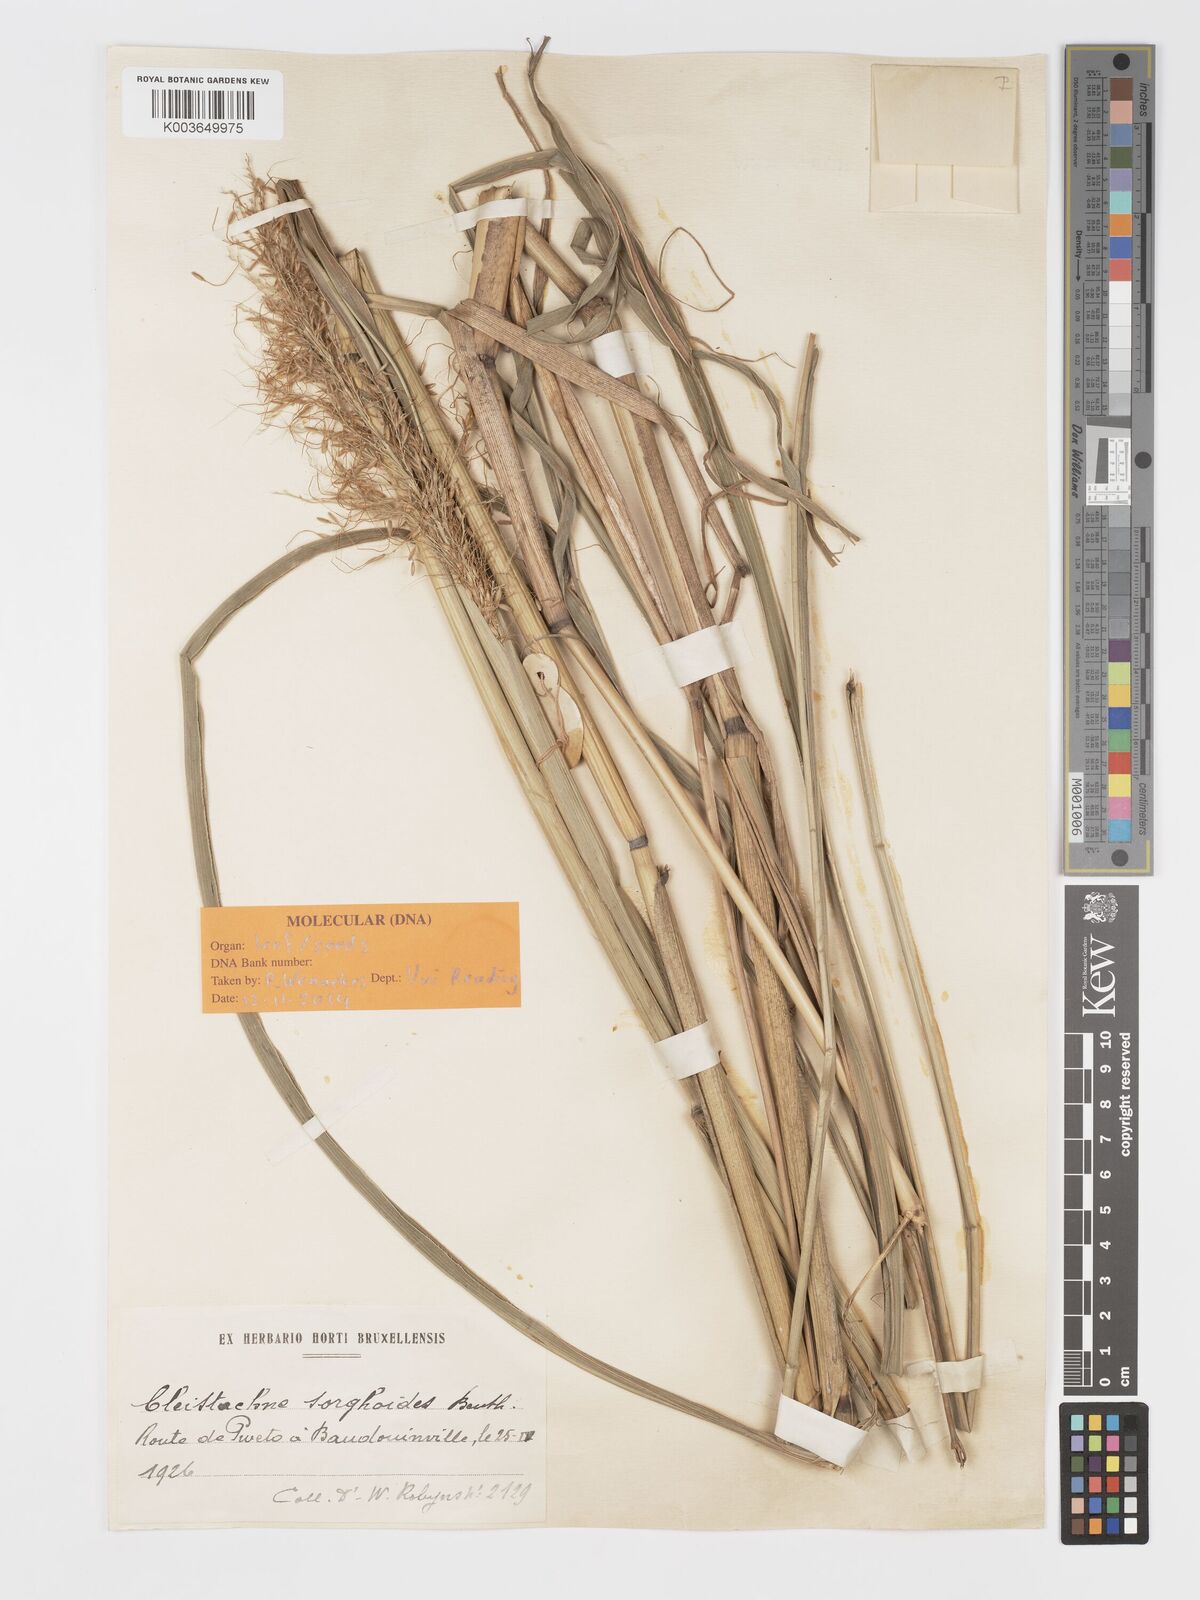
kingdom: Plantae
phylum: Tracheophyta
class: Liliopsida
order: Poales
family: Poaceae
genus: Cleistachne
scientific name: Cleistachne sorghoides
